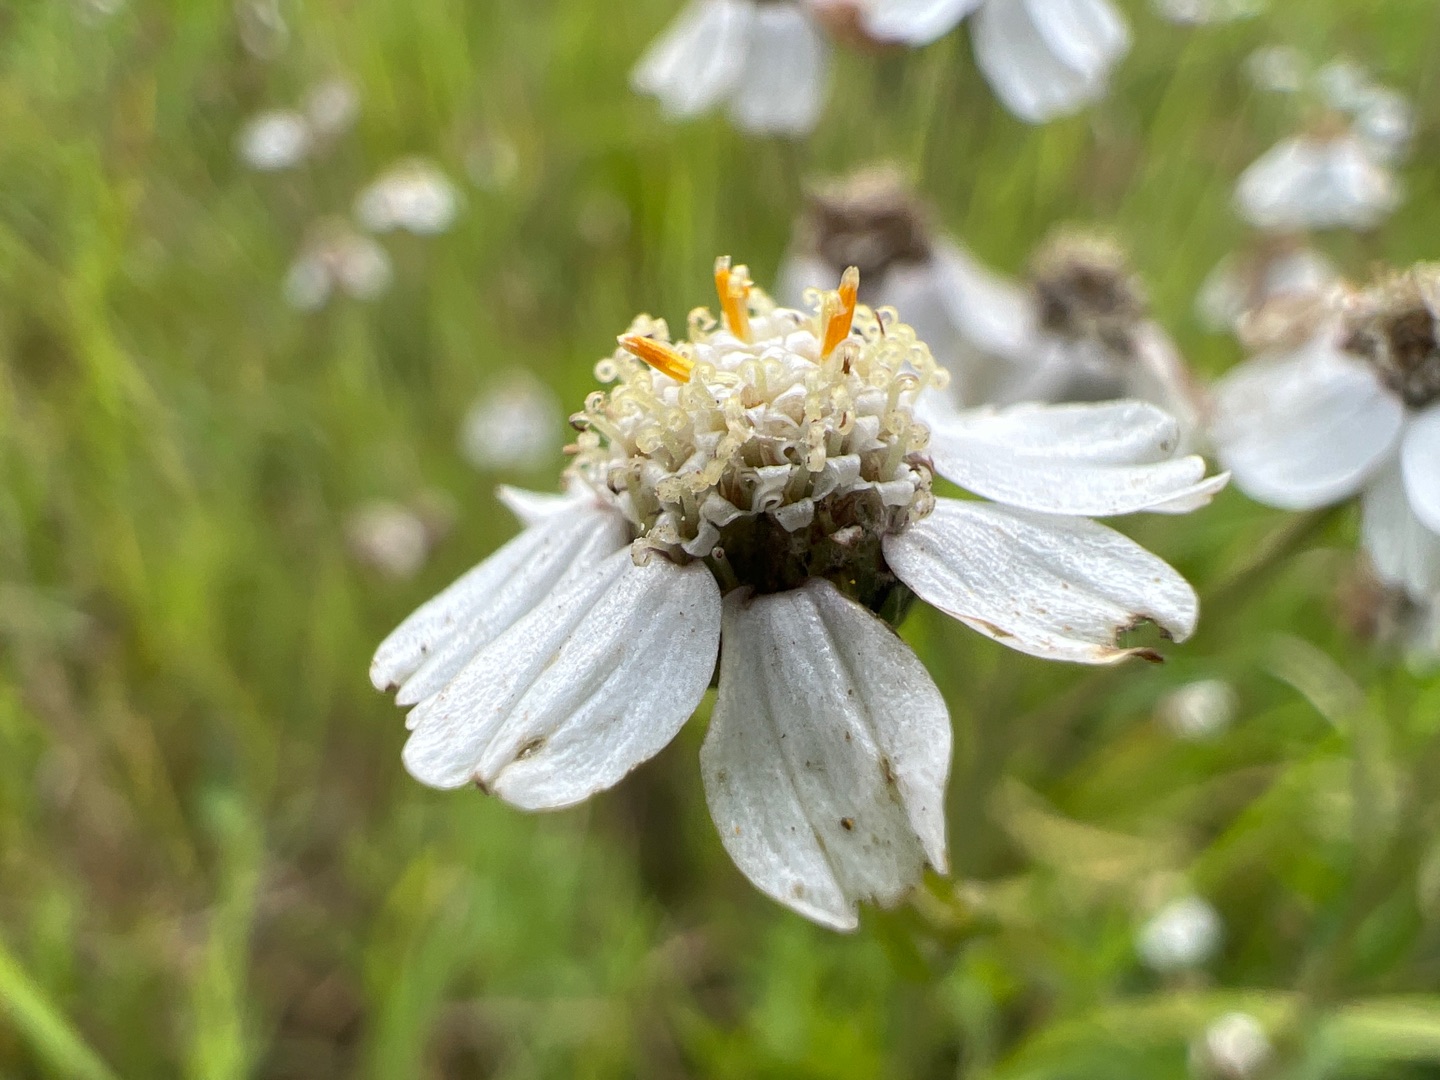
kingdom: Plantae
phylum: Tracheophyta
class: Magnoliopsida
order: Asterales
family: Asteraceae
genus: Achillea
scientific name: Achillea ptarmica
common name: Nyse-røllike
